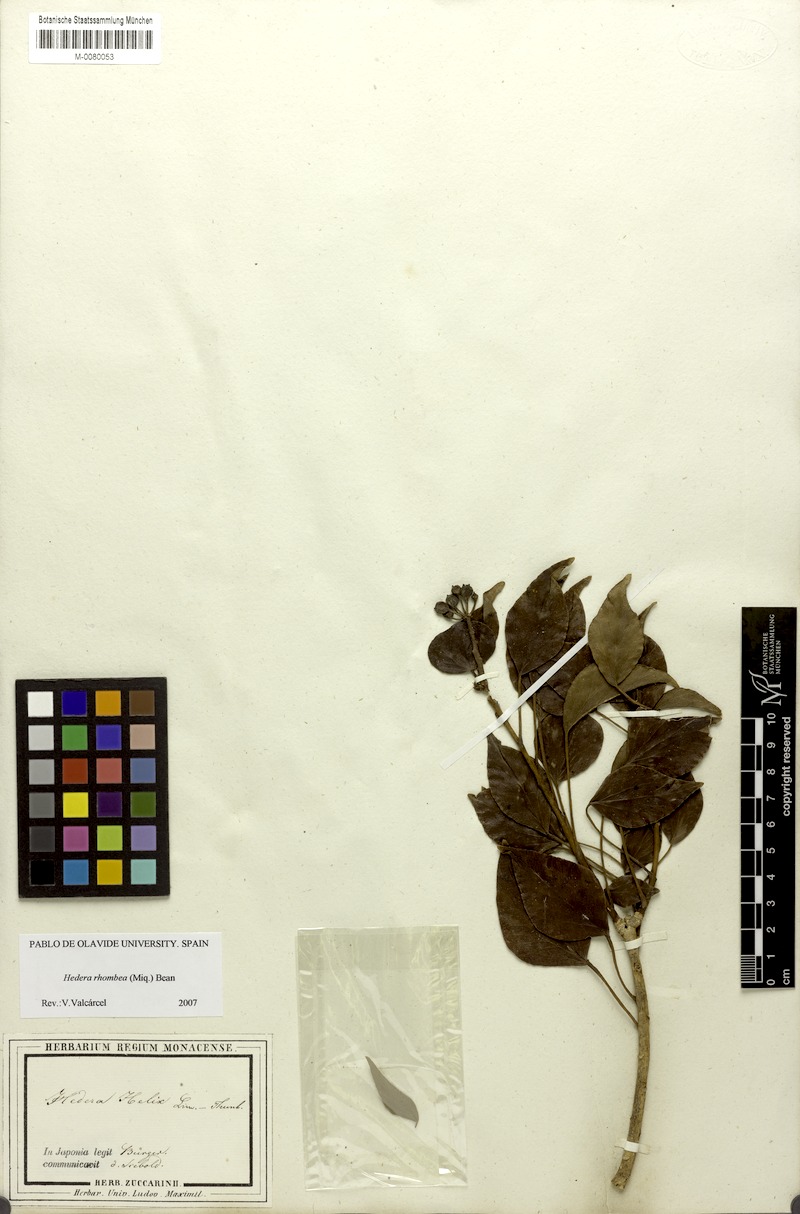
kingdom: Plantae
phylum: Tracheophyta
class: Magnoliopsida
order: Apiales
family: Araliaceae
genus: Hedera
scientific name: Hedera rhombea
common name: Japanese ivy
